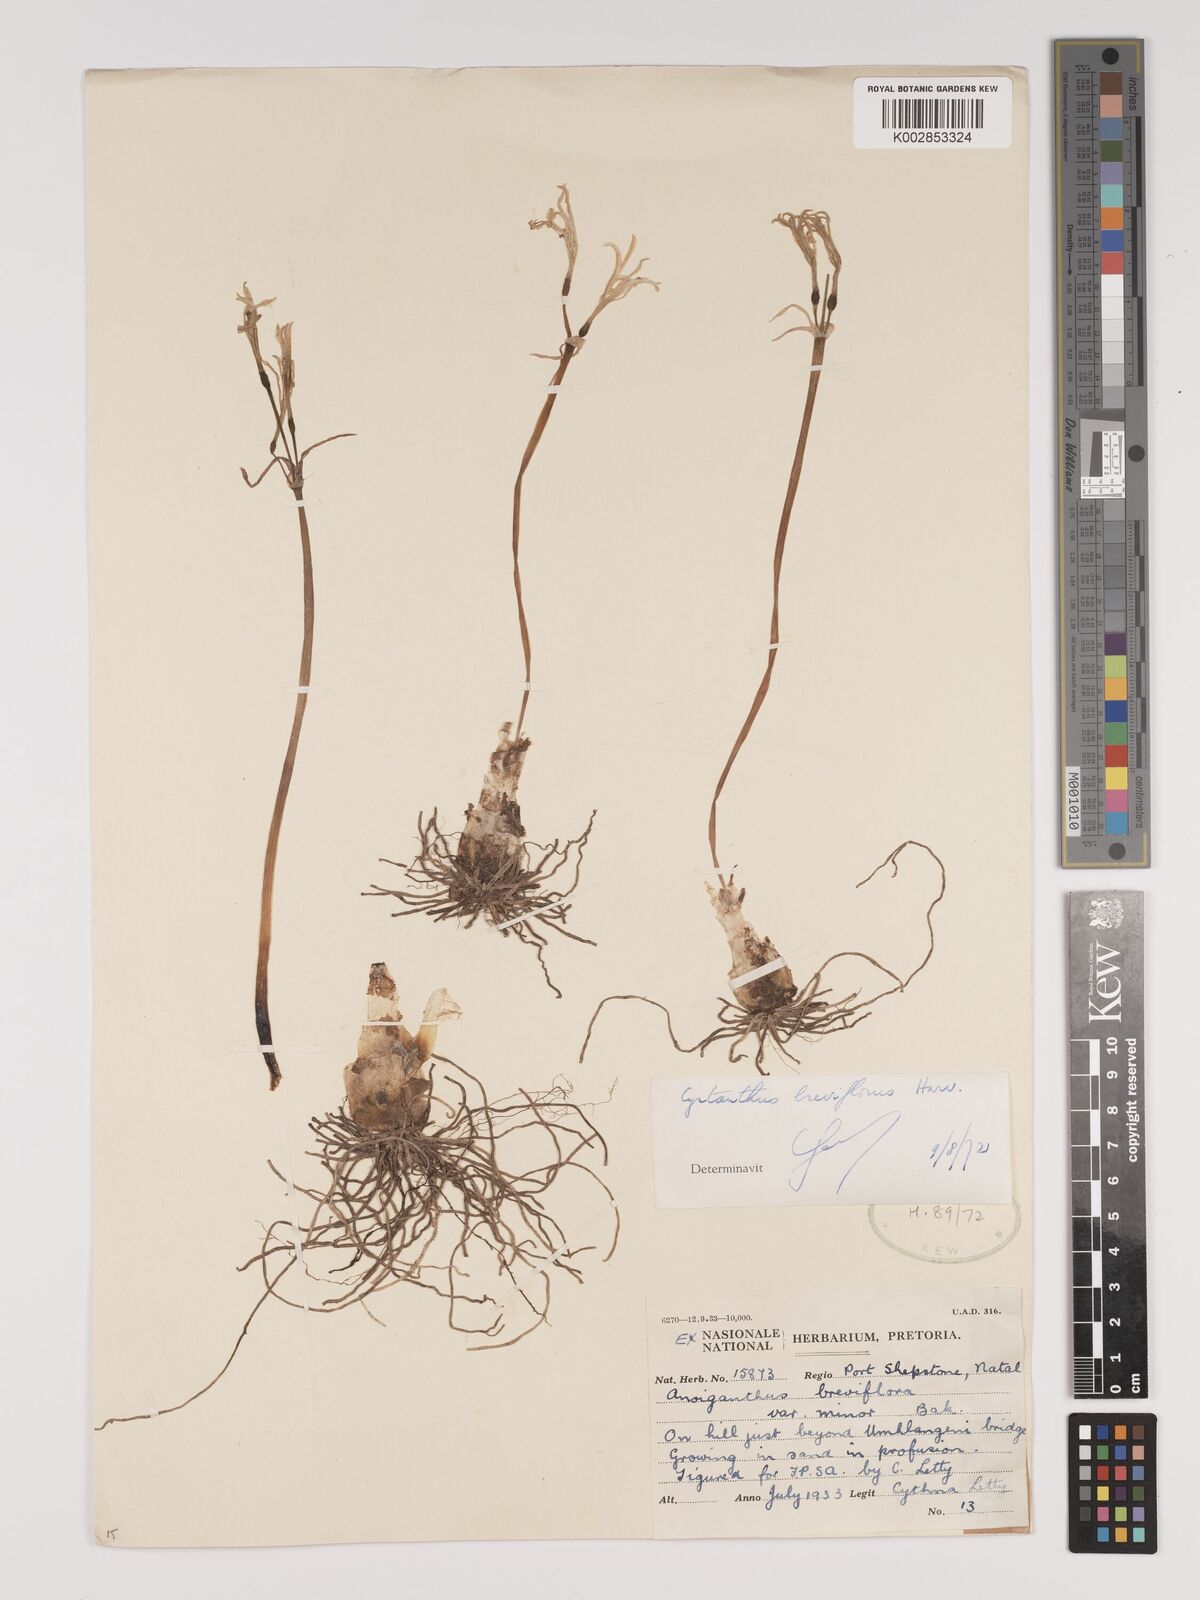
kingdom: Plantae
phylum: Tracheophyta
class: Liliopsida
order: Asparagales
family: Amaryllidaceae
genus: Cyrtanthus
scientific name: Cyrtanthus breviflorus
